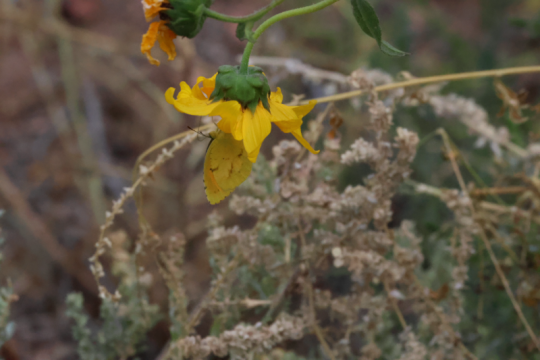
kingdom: Animalia
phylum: Arthropoda
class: Insecta
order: Lepidoptera
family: Pieridae
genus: Abaeis
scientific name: Abaeis nicippe
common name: Sleepy Orange
